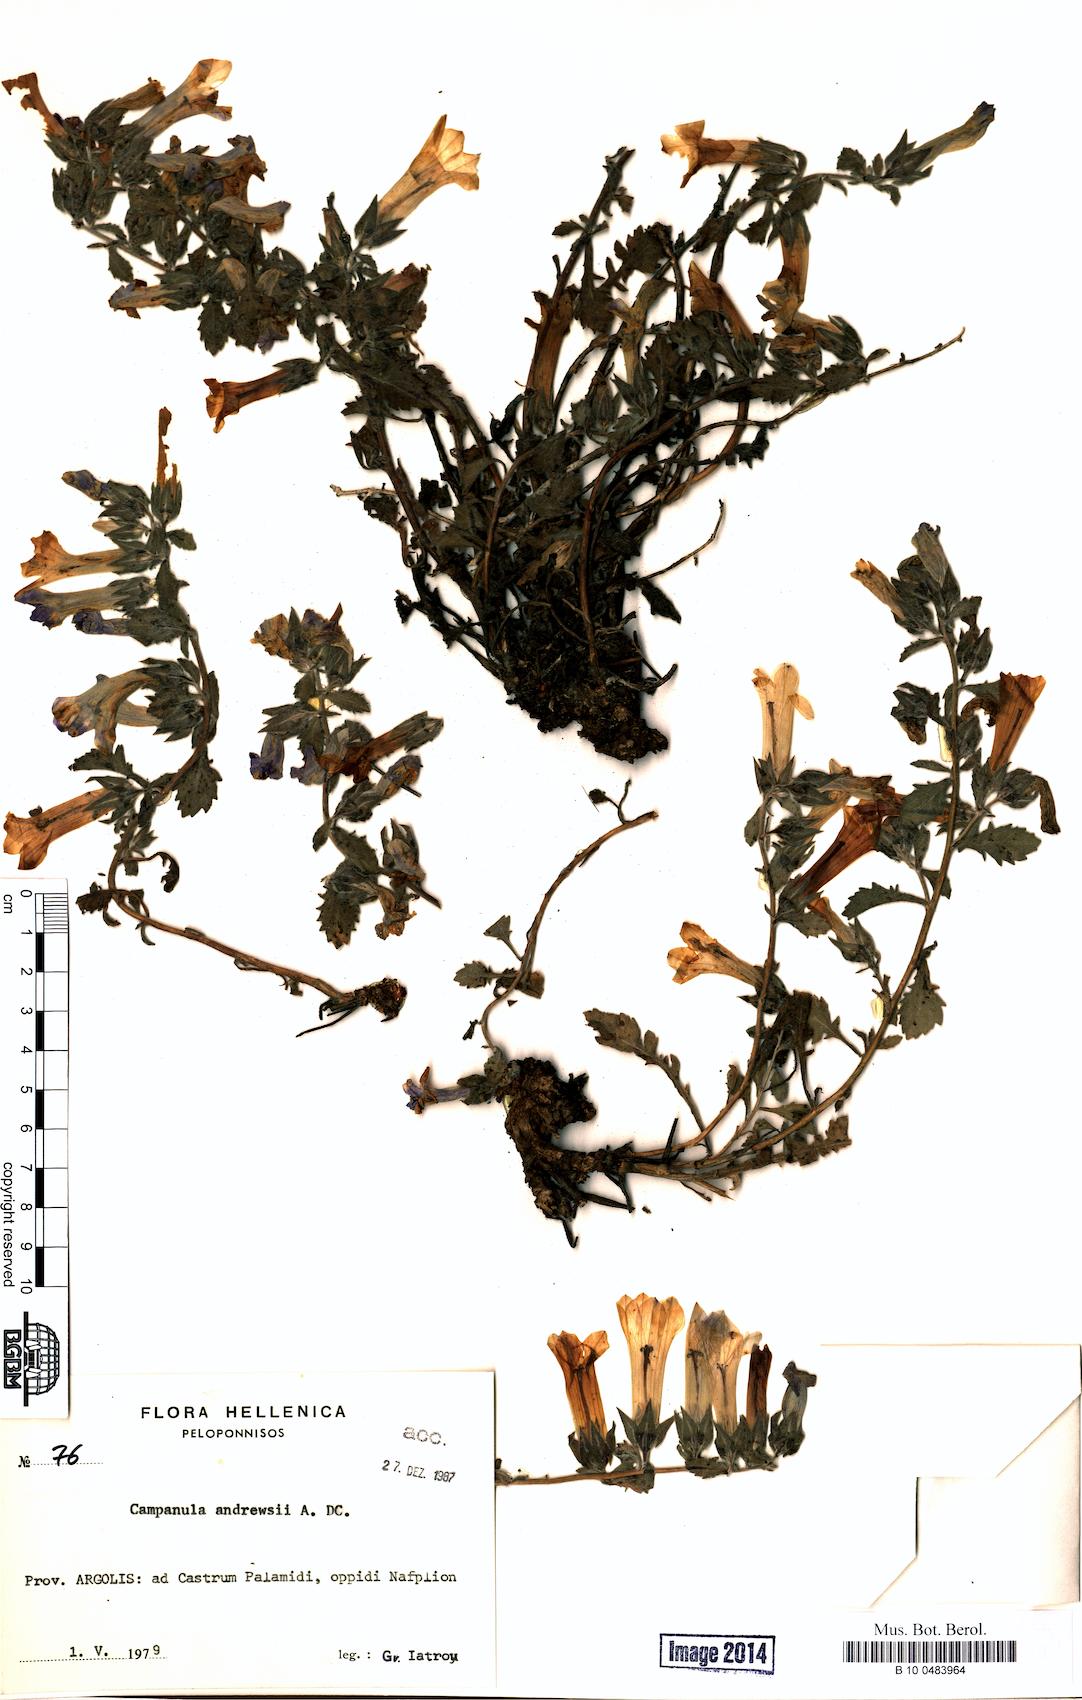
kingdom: Plantae
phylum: Tracheophyta
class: Magnoliopsida
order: Asterales
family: Campanulaceae
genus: Campanula
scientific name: Campanula andrewsii
